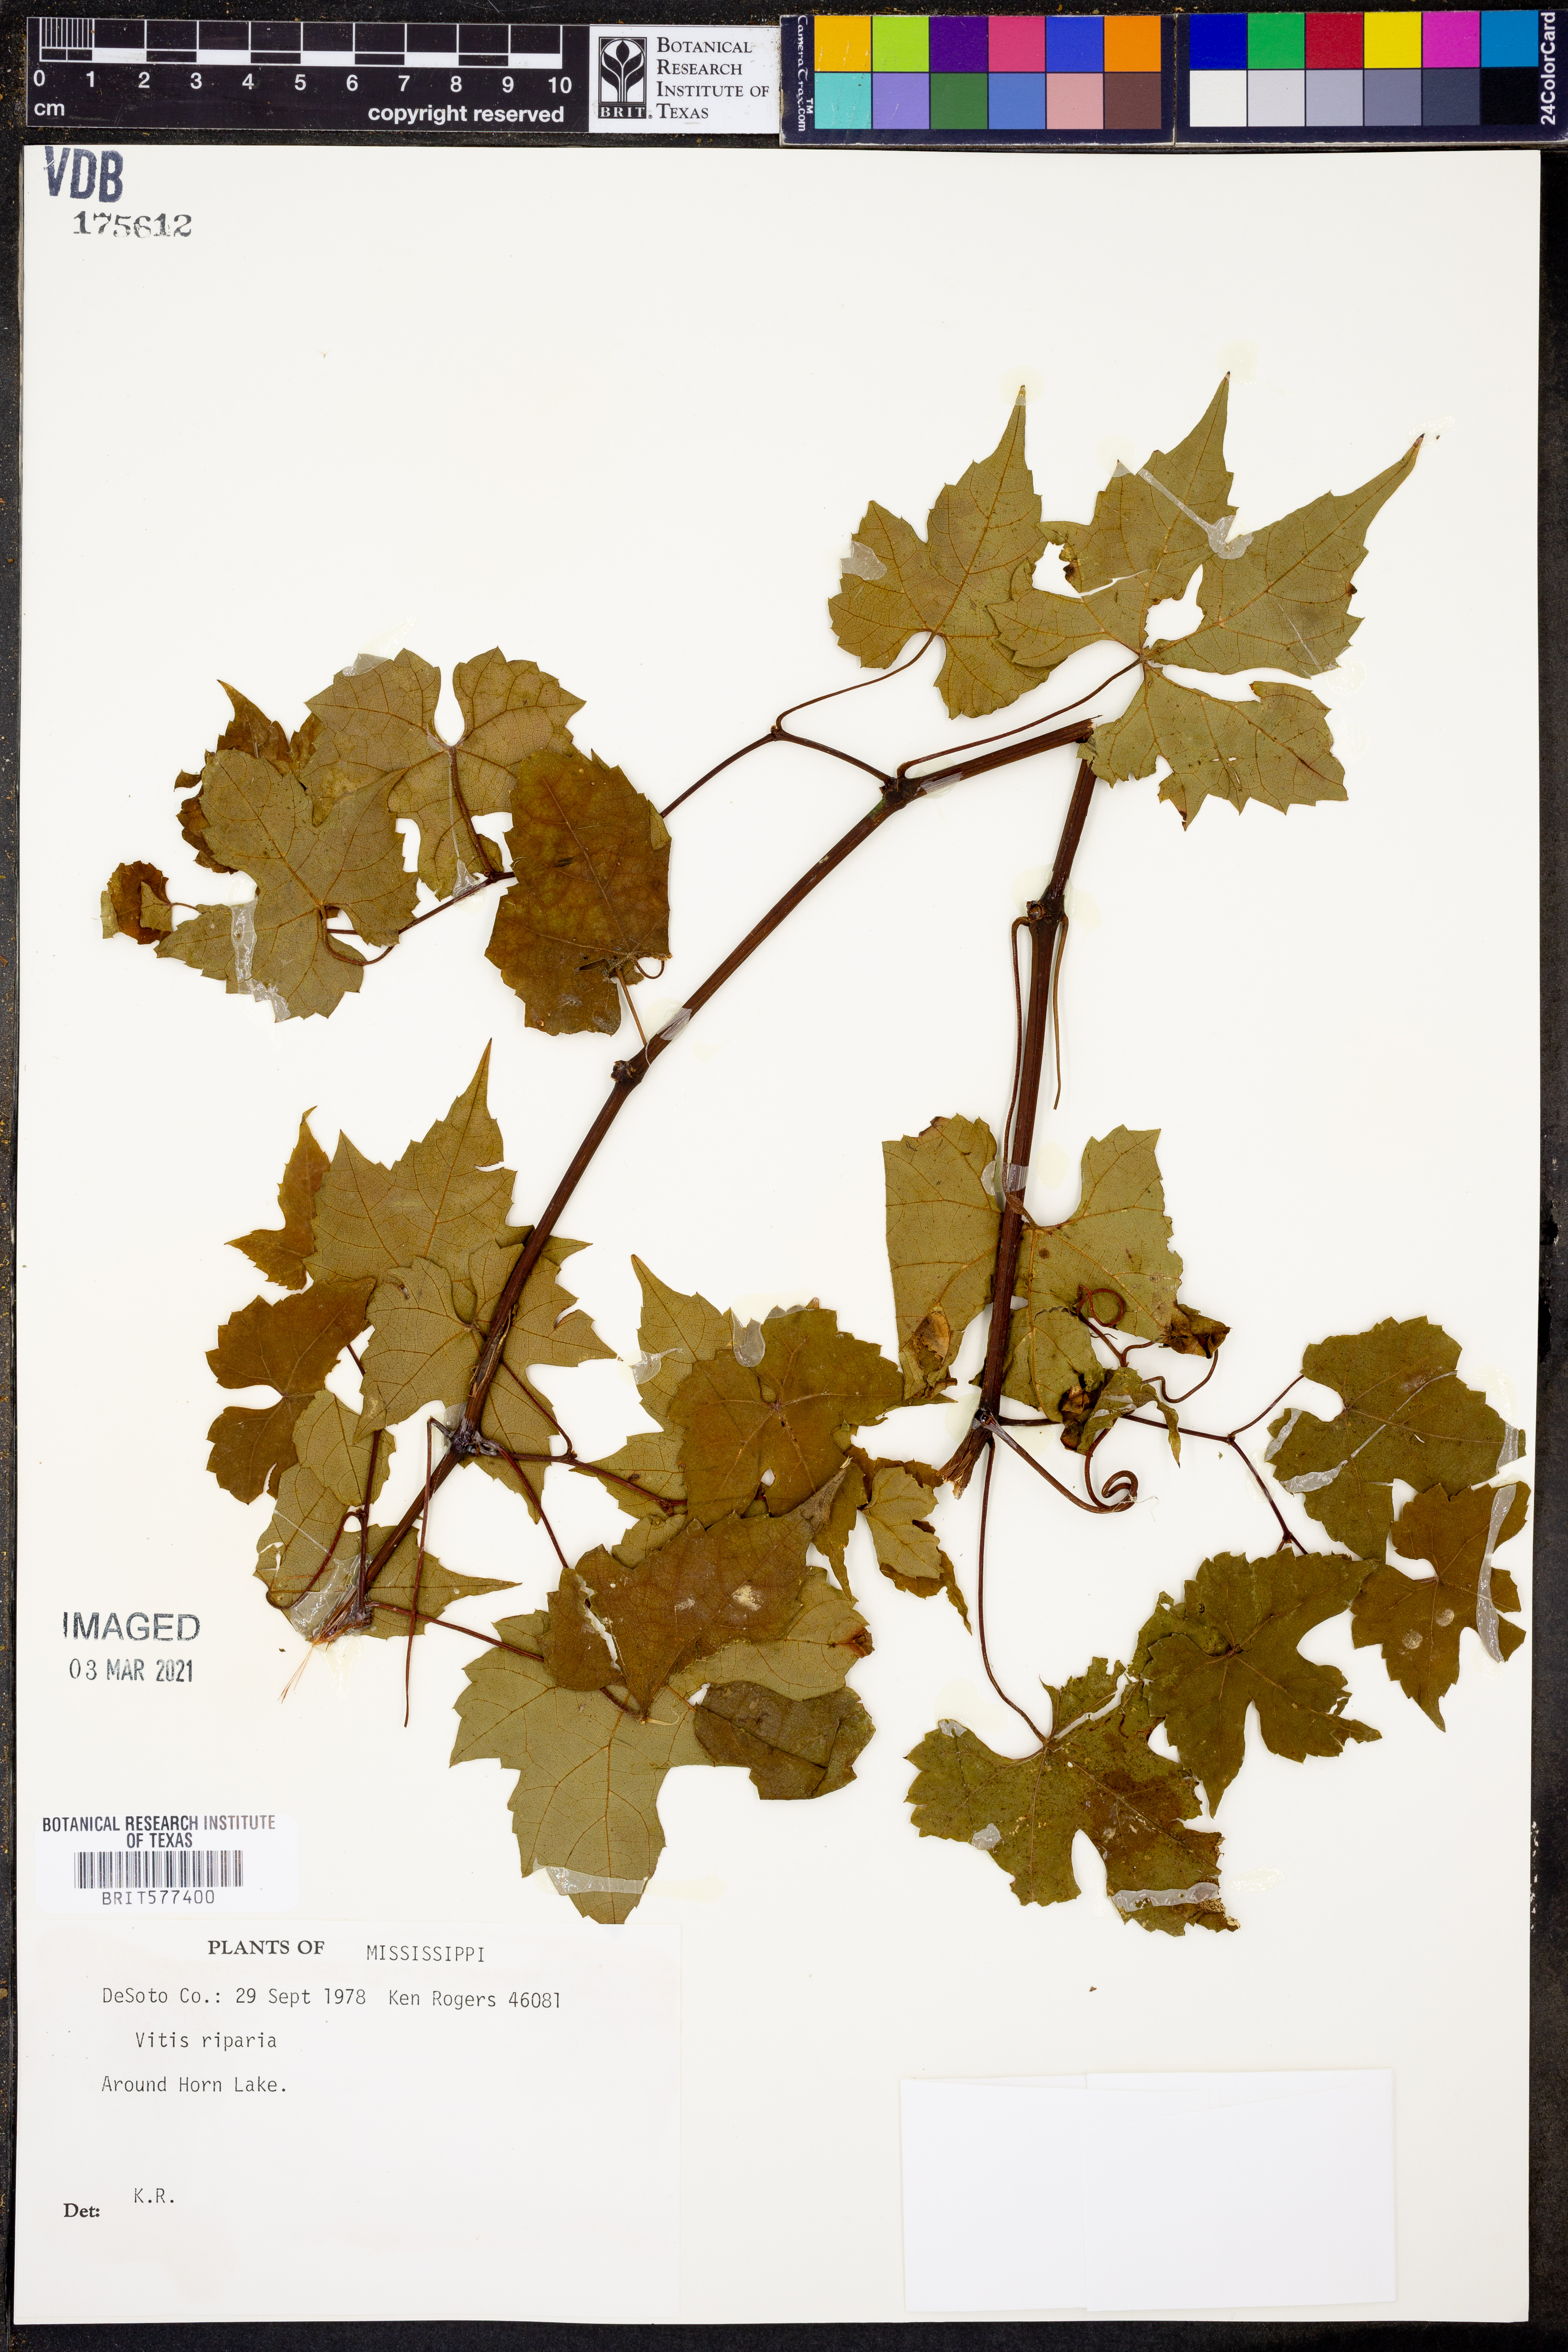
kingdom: Plantae
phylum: Tracheophyta
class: Magnoliopsida
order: Vitales
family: Vitaceae
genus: Vitis
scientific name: Vitis riparia
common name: Frost grape
